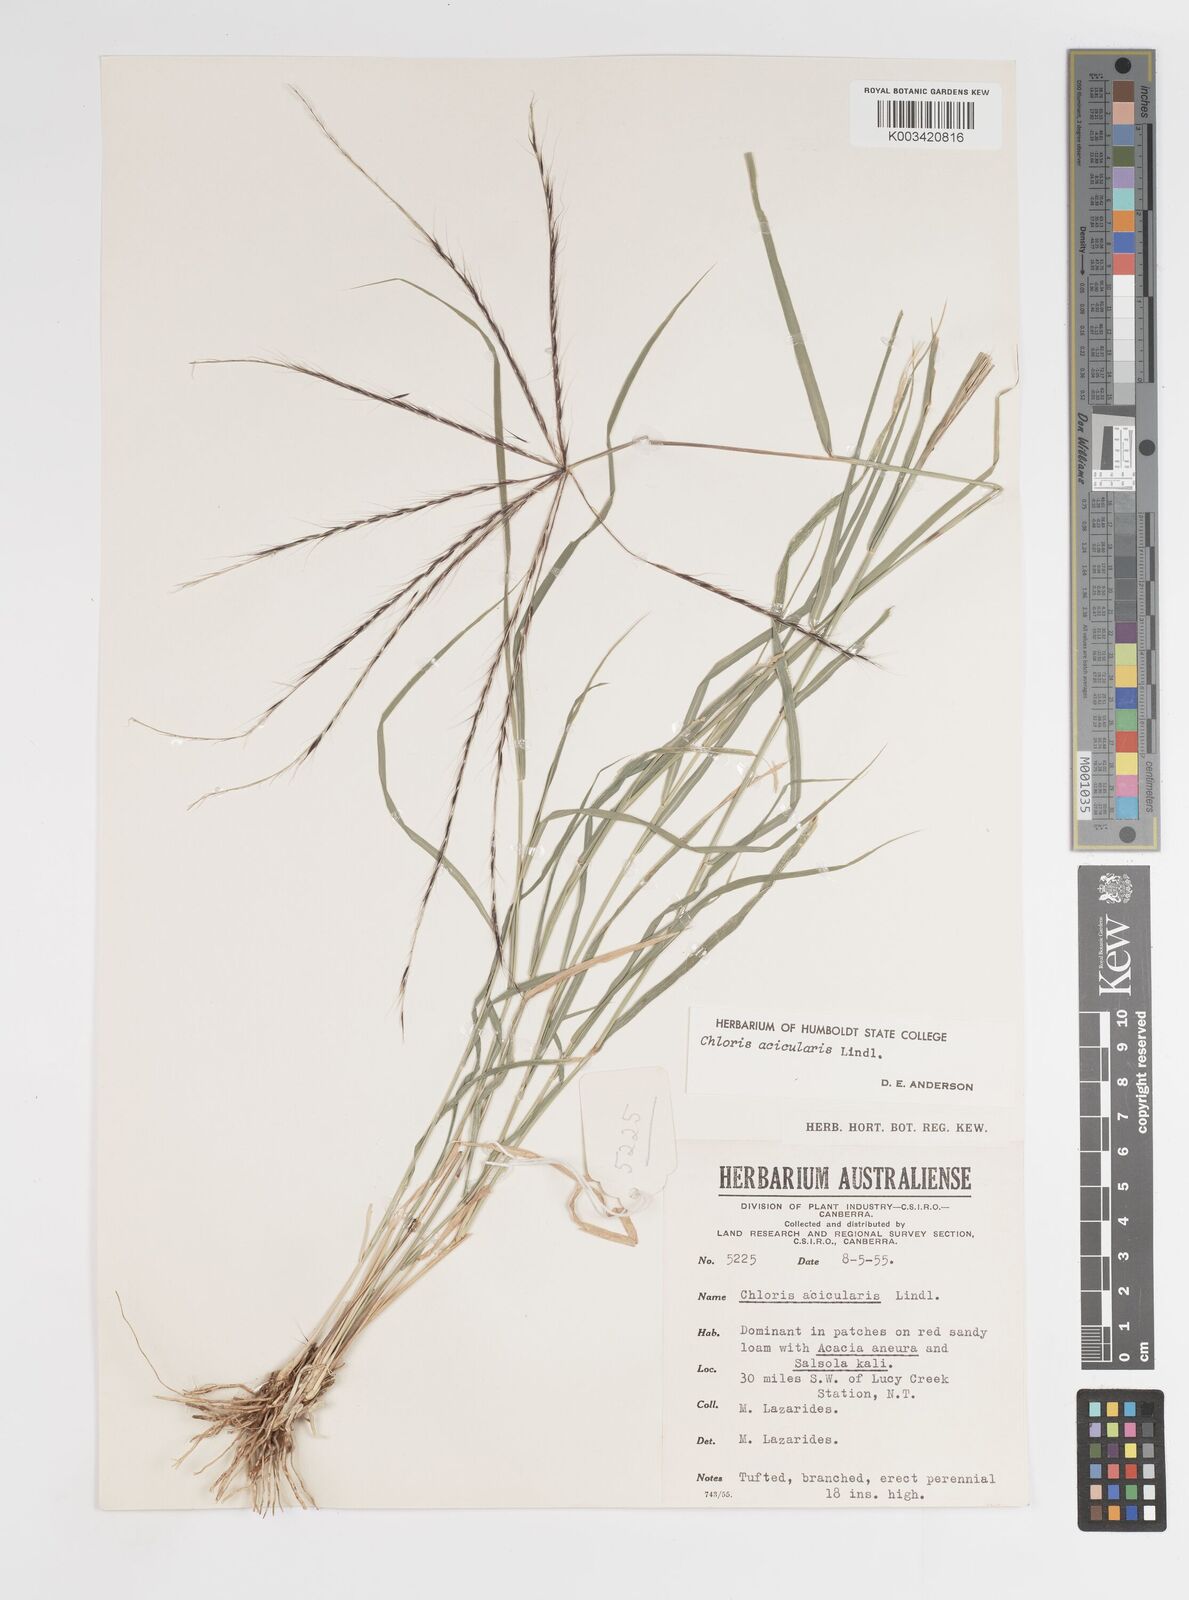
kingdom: Plantae
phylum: Tracheophyta
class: Liliopsida
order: Poales
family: Poaceae
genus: Enteropogon
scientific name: Enteropogon acicularis
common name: Curly windmill grass
